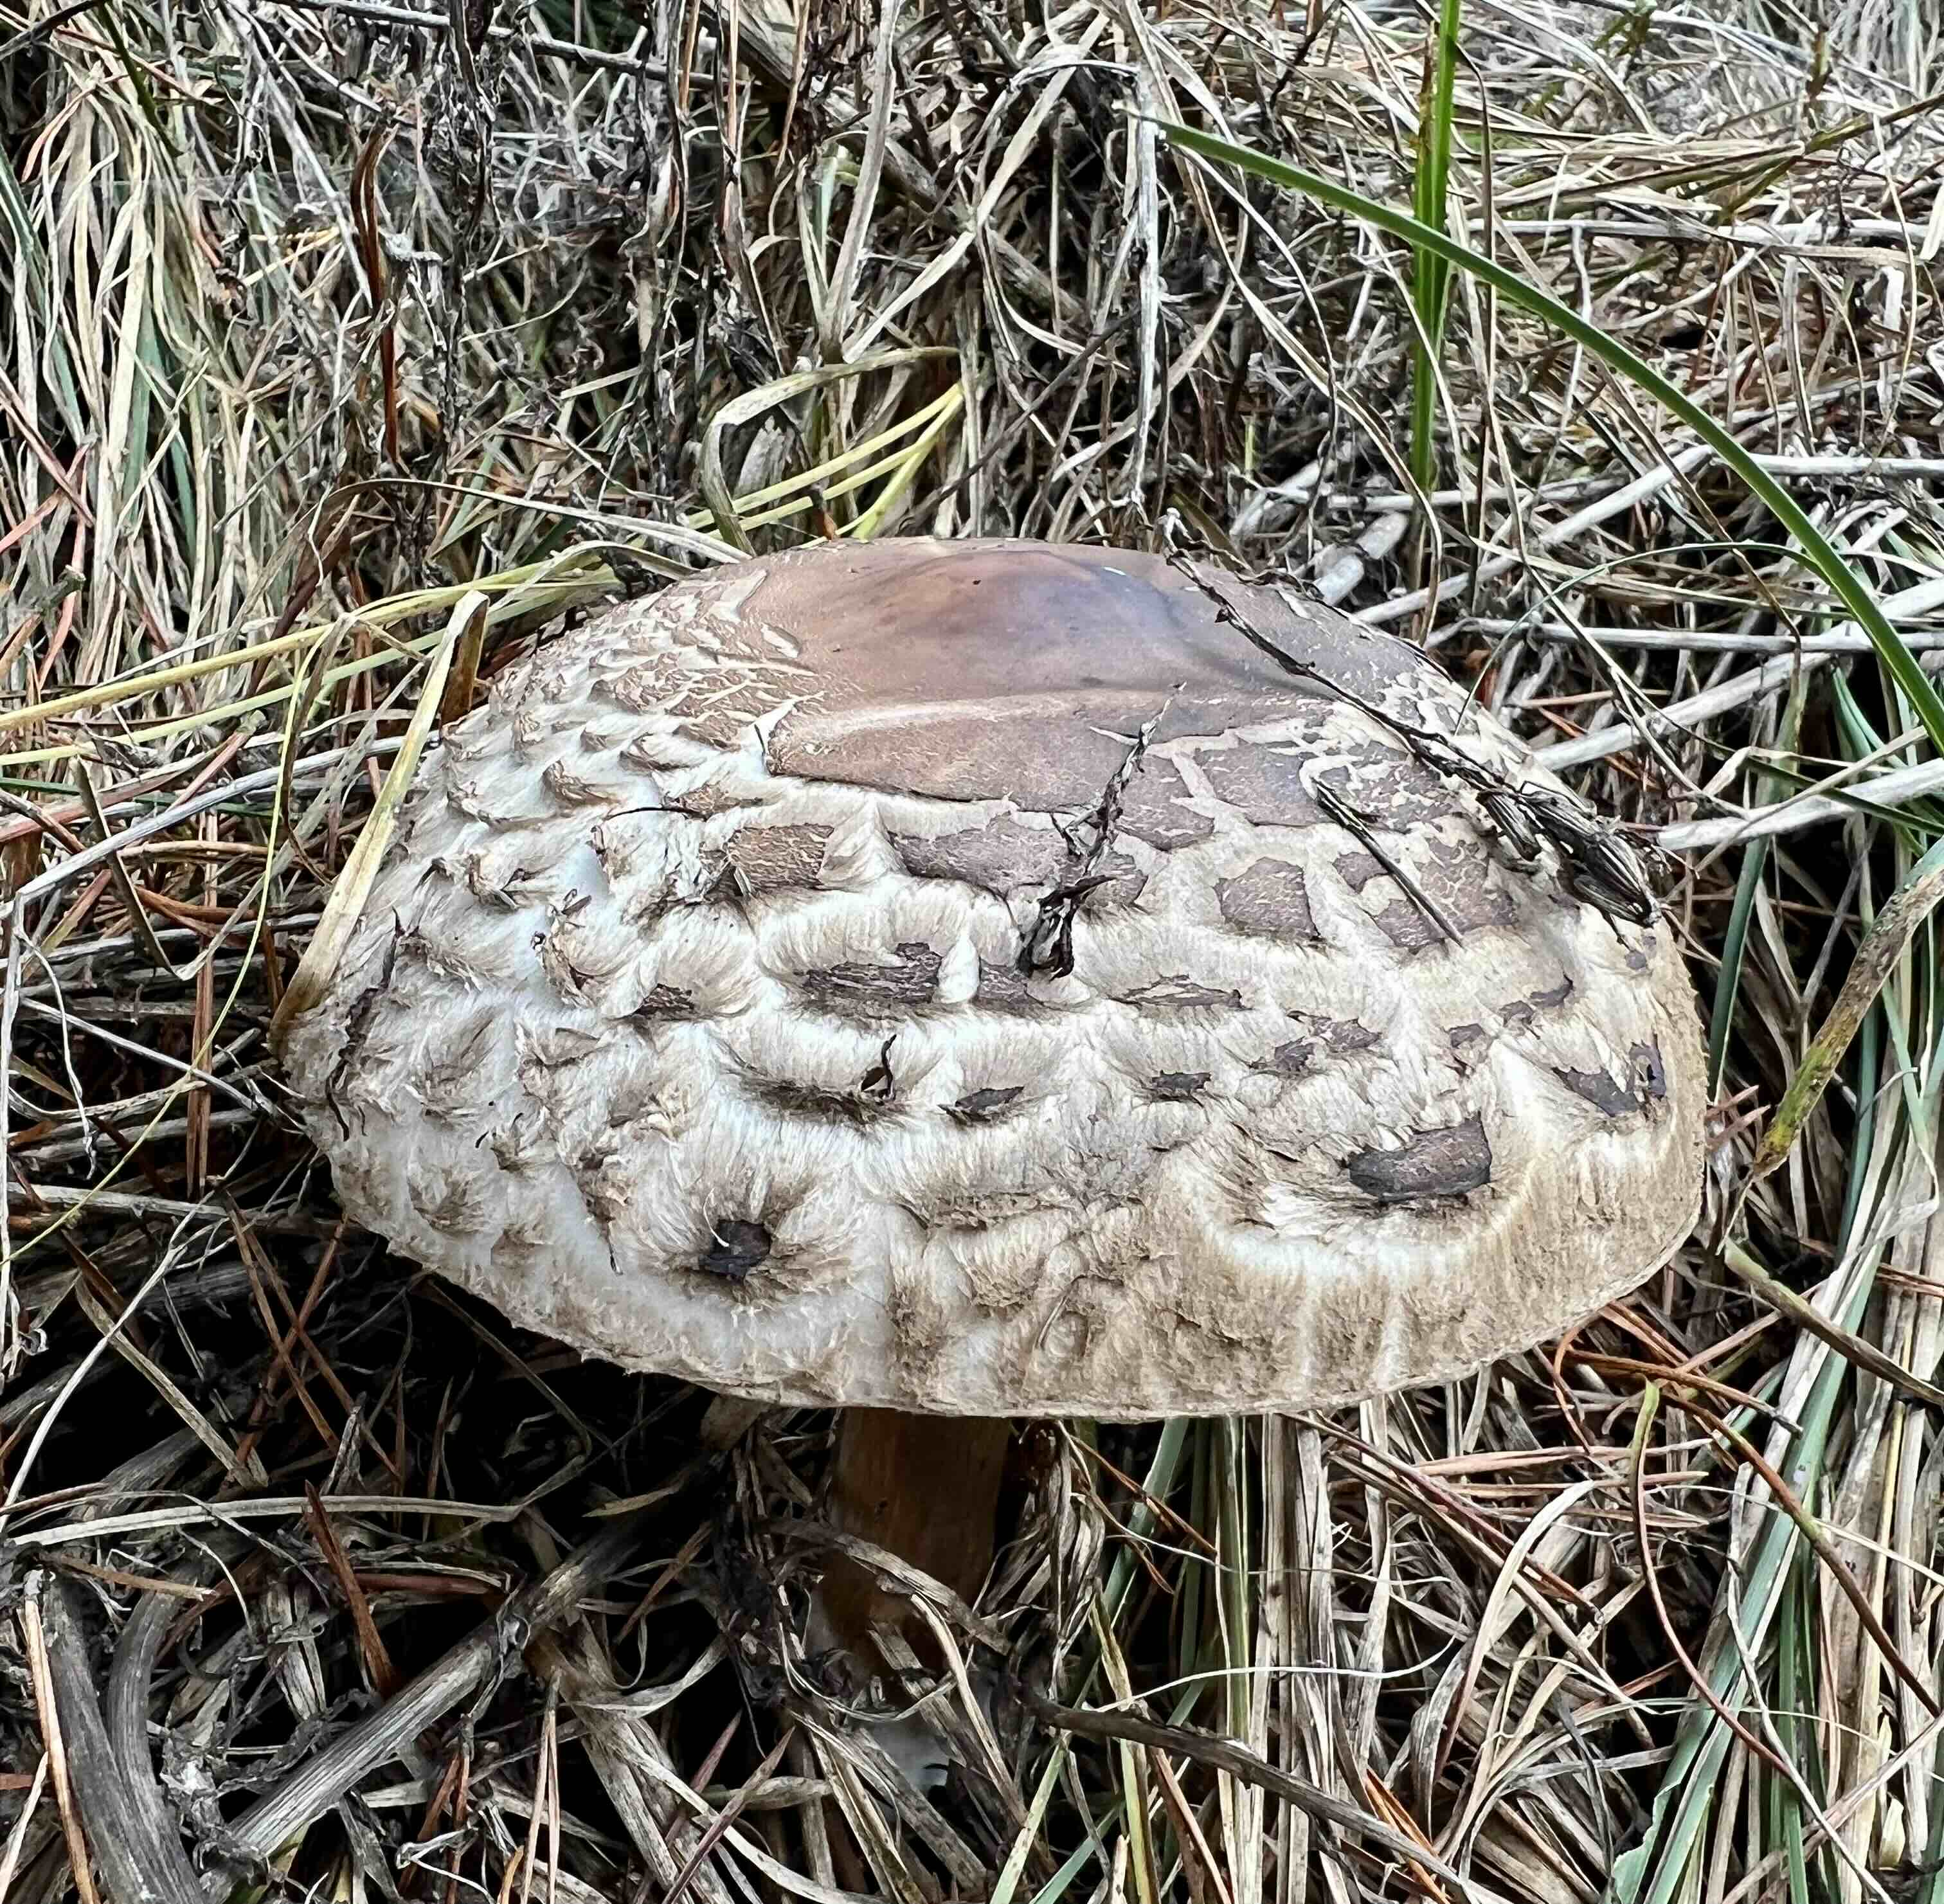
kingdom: Fungi
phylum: Basidiomycota
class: Agaricomycetes
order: Agaricales
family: Agaricaceae
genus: Chlorophyllum
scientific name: Chlorophyllum olivieri
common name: almindelig rabarberhat
